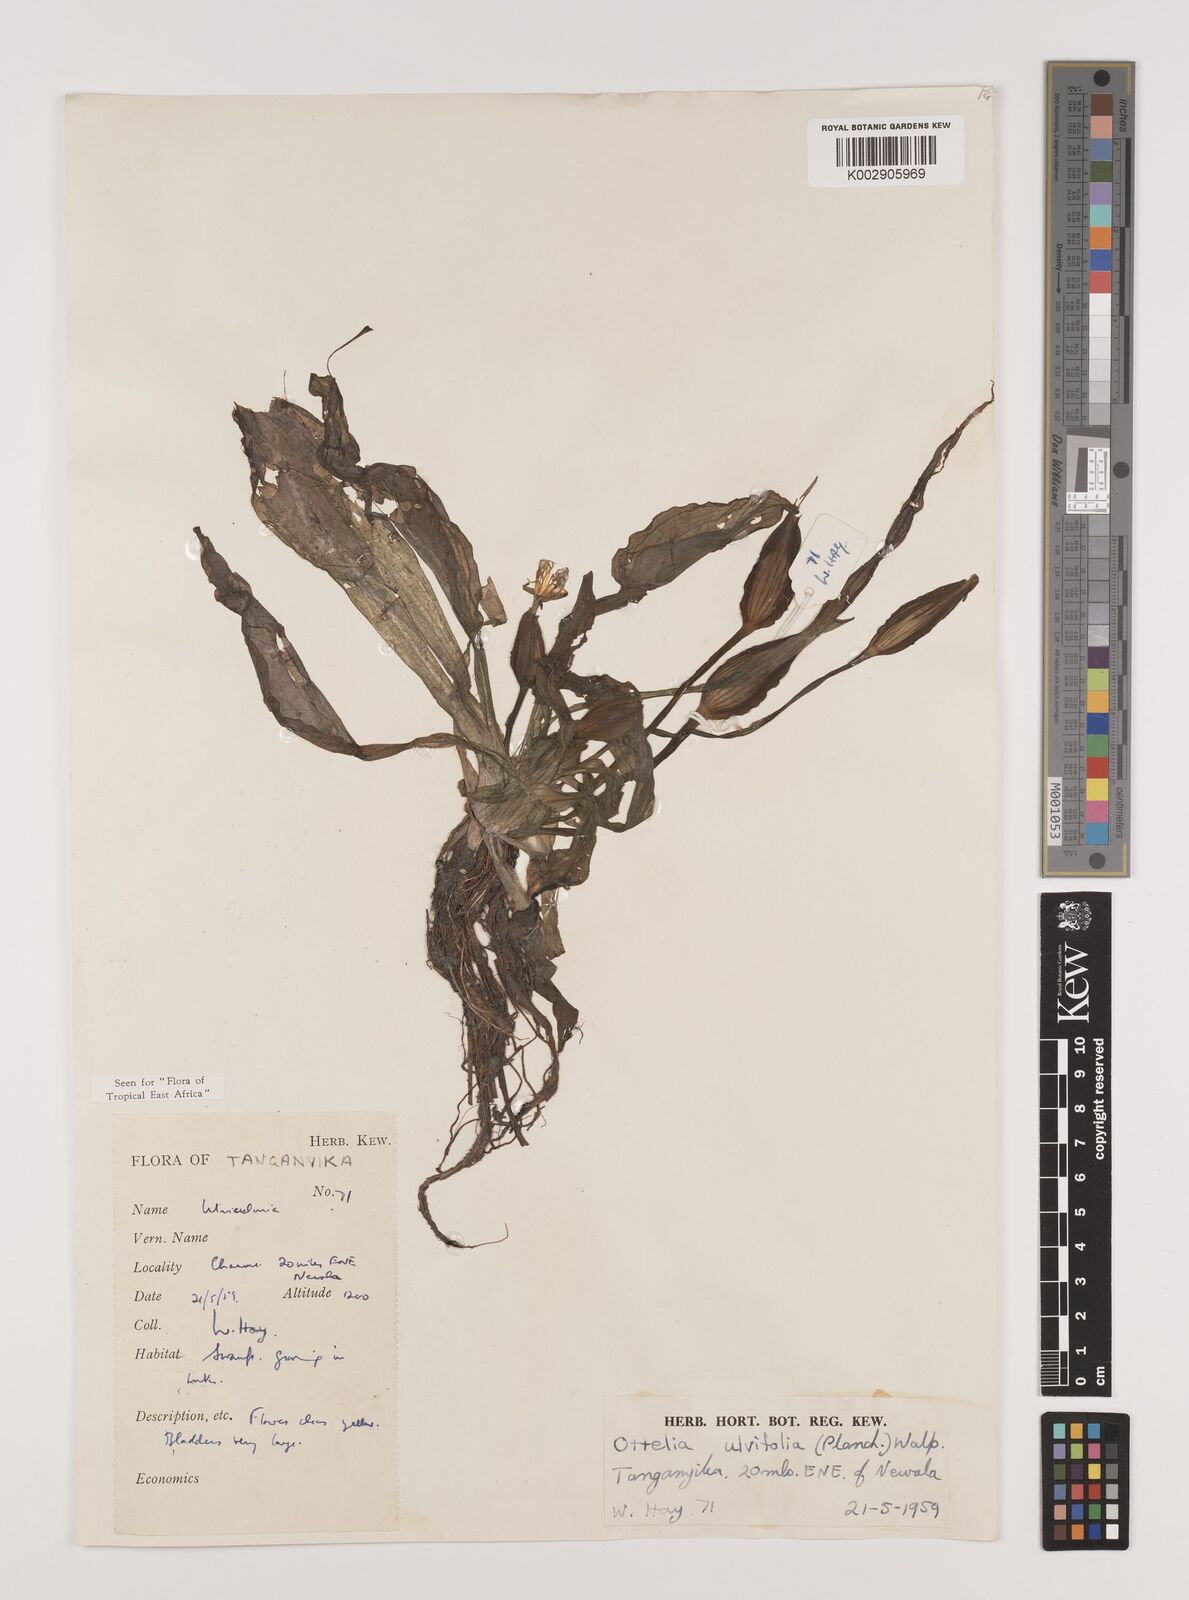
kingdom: Plantae
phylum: Tracheophyta
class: Liliopsida
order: Alismatales
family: Hydrocharitaceae
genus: Ottelia
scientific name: Ottelia ulvifolia
